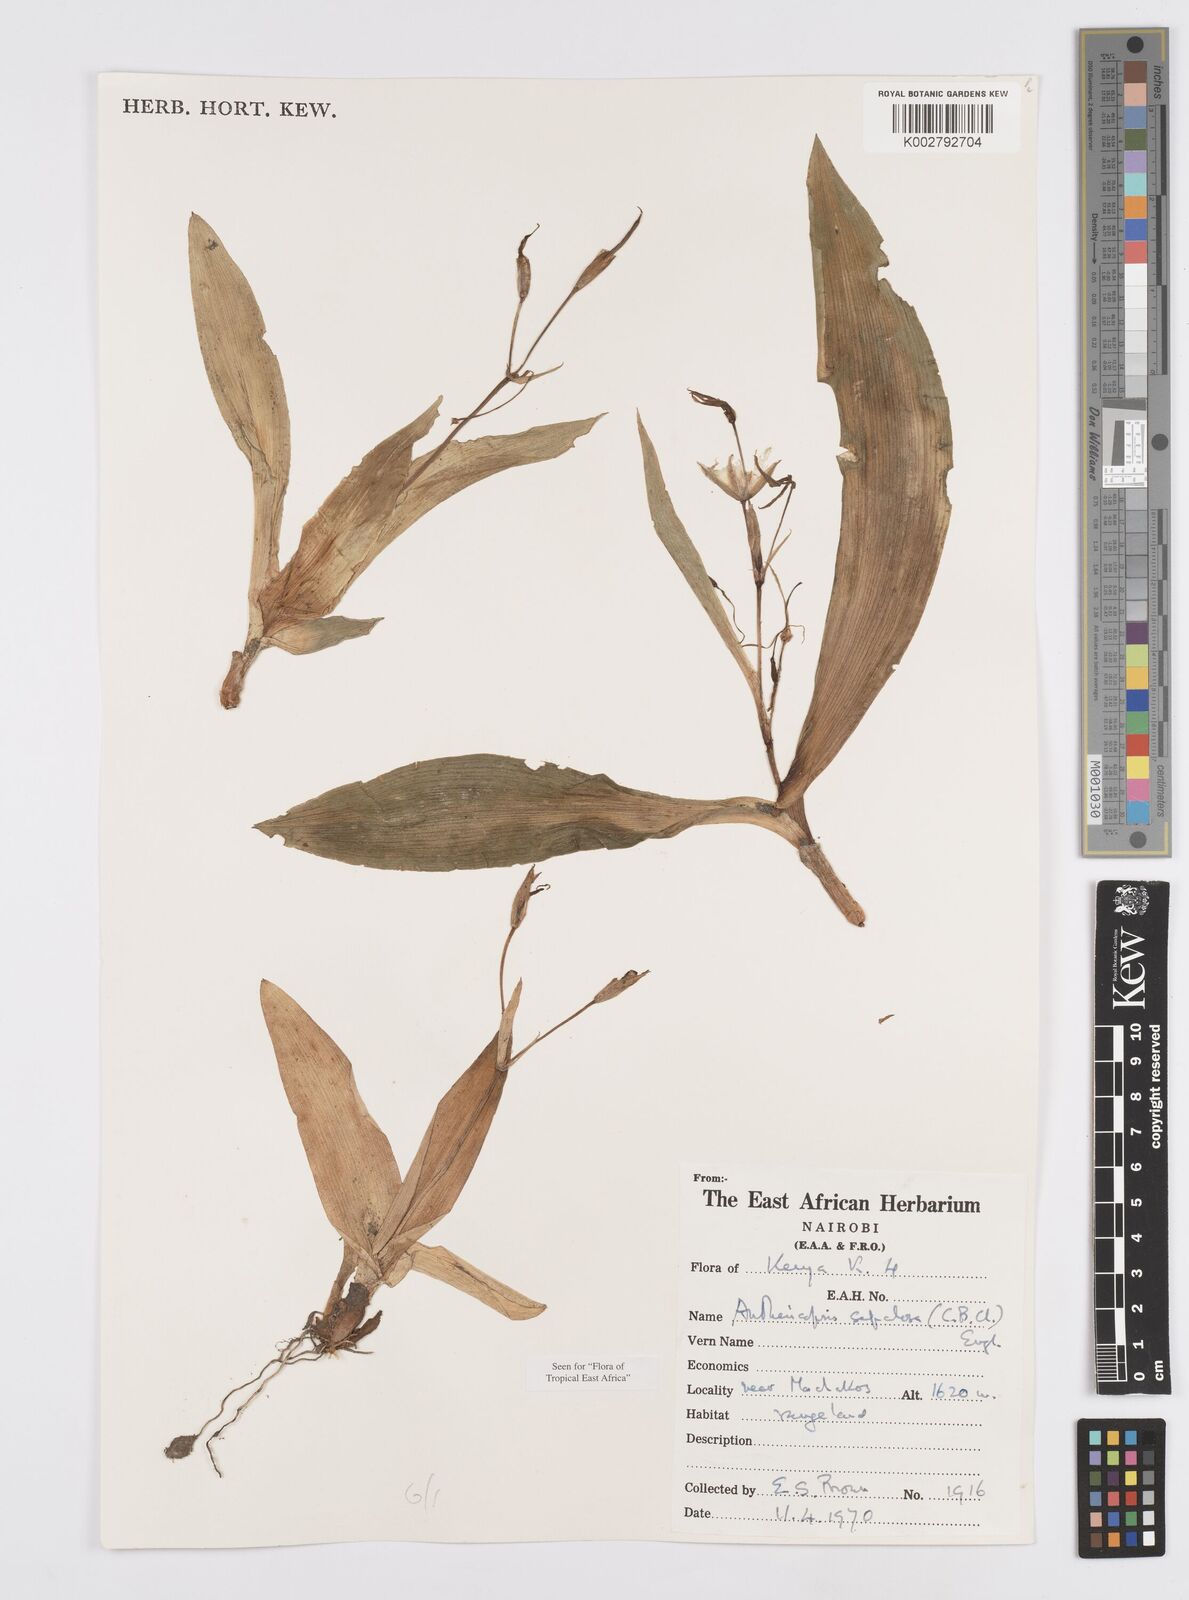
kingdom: Plantae
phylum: Tracheophyta
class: Liliopsida
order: Commelinales
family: Commelinaceae
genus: Anthericopsis
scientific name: Anthericopsis sepalosa
